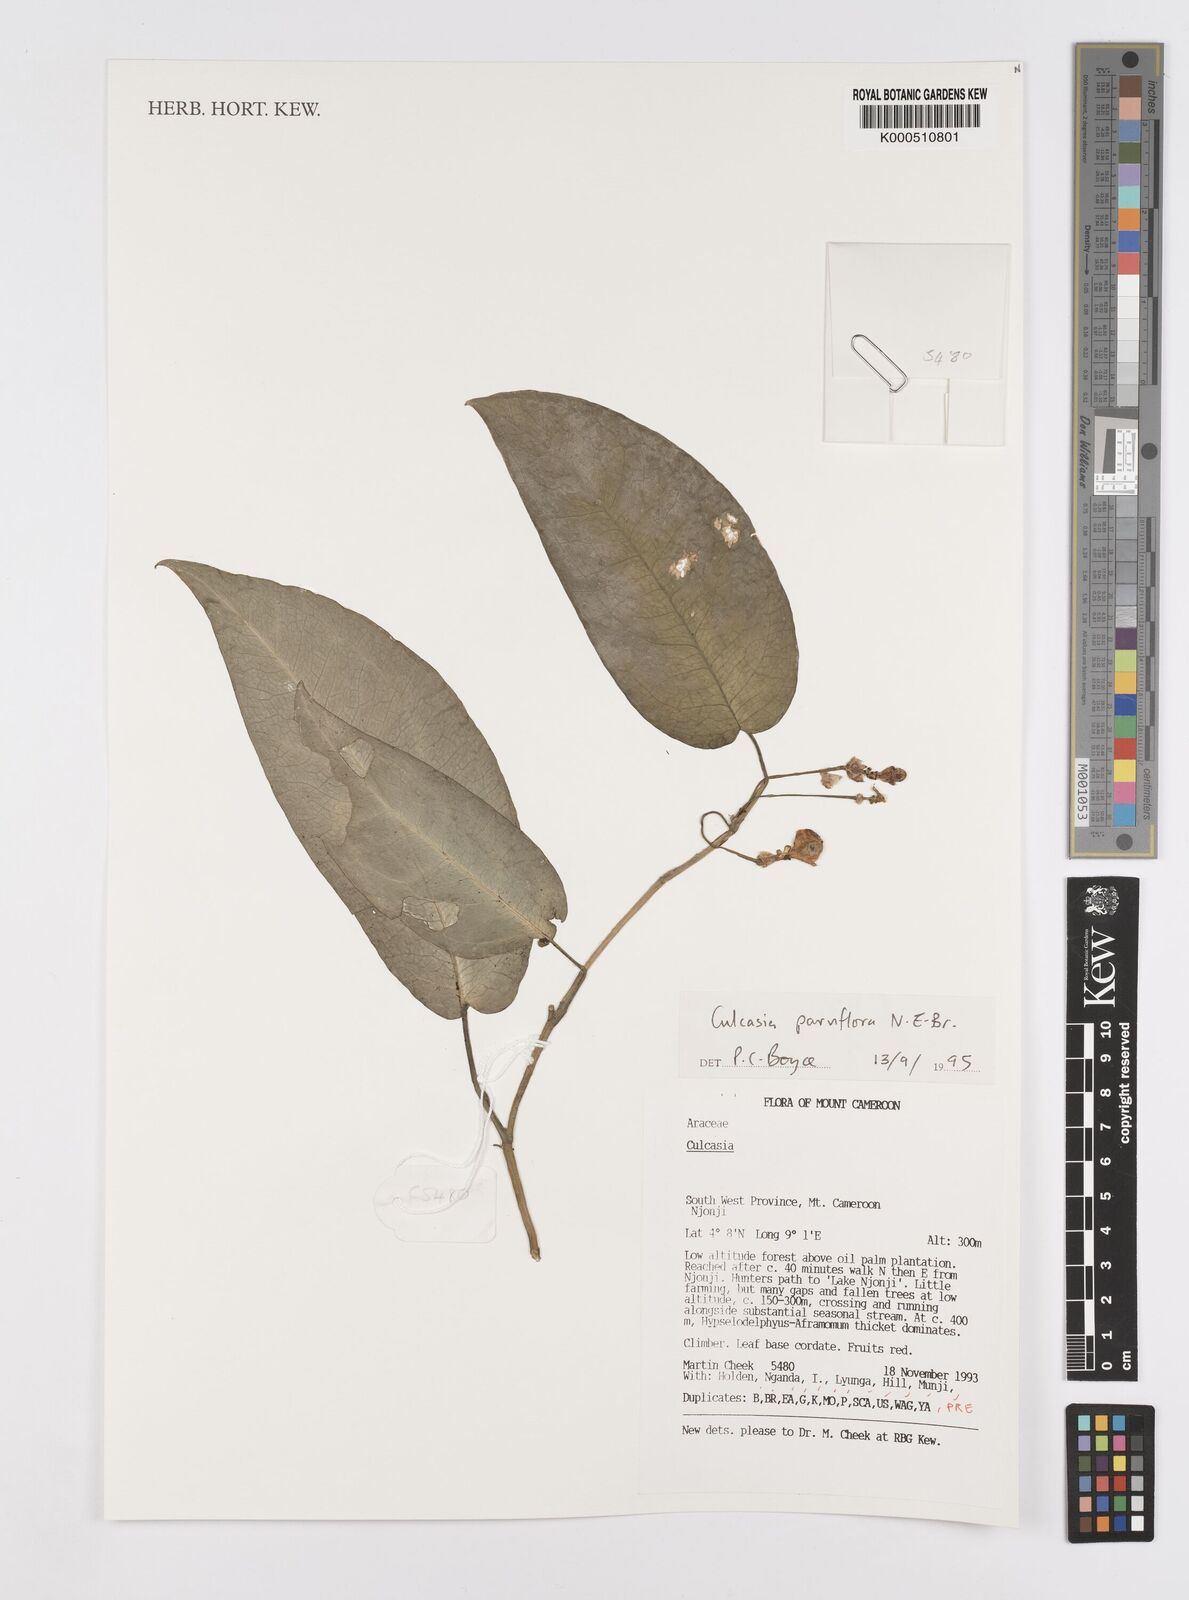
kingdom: Plantae
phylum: Tracheophyta
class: Liliopsida
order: Alismatales
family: Araceae
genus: Culcasia
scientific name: Culcasia parviflora
